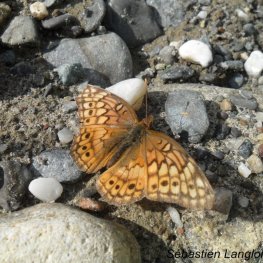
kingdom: Animalia
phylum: Arthropoda
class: Insecta
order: Lepidoptera
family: Nymphalidae
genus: Euptoieta
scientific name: Euptoieta claudia
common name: Variegated Fritillary
